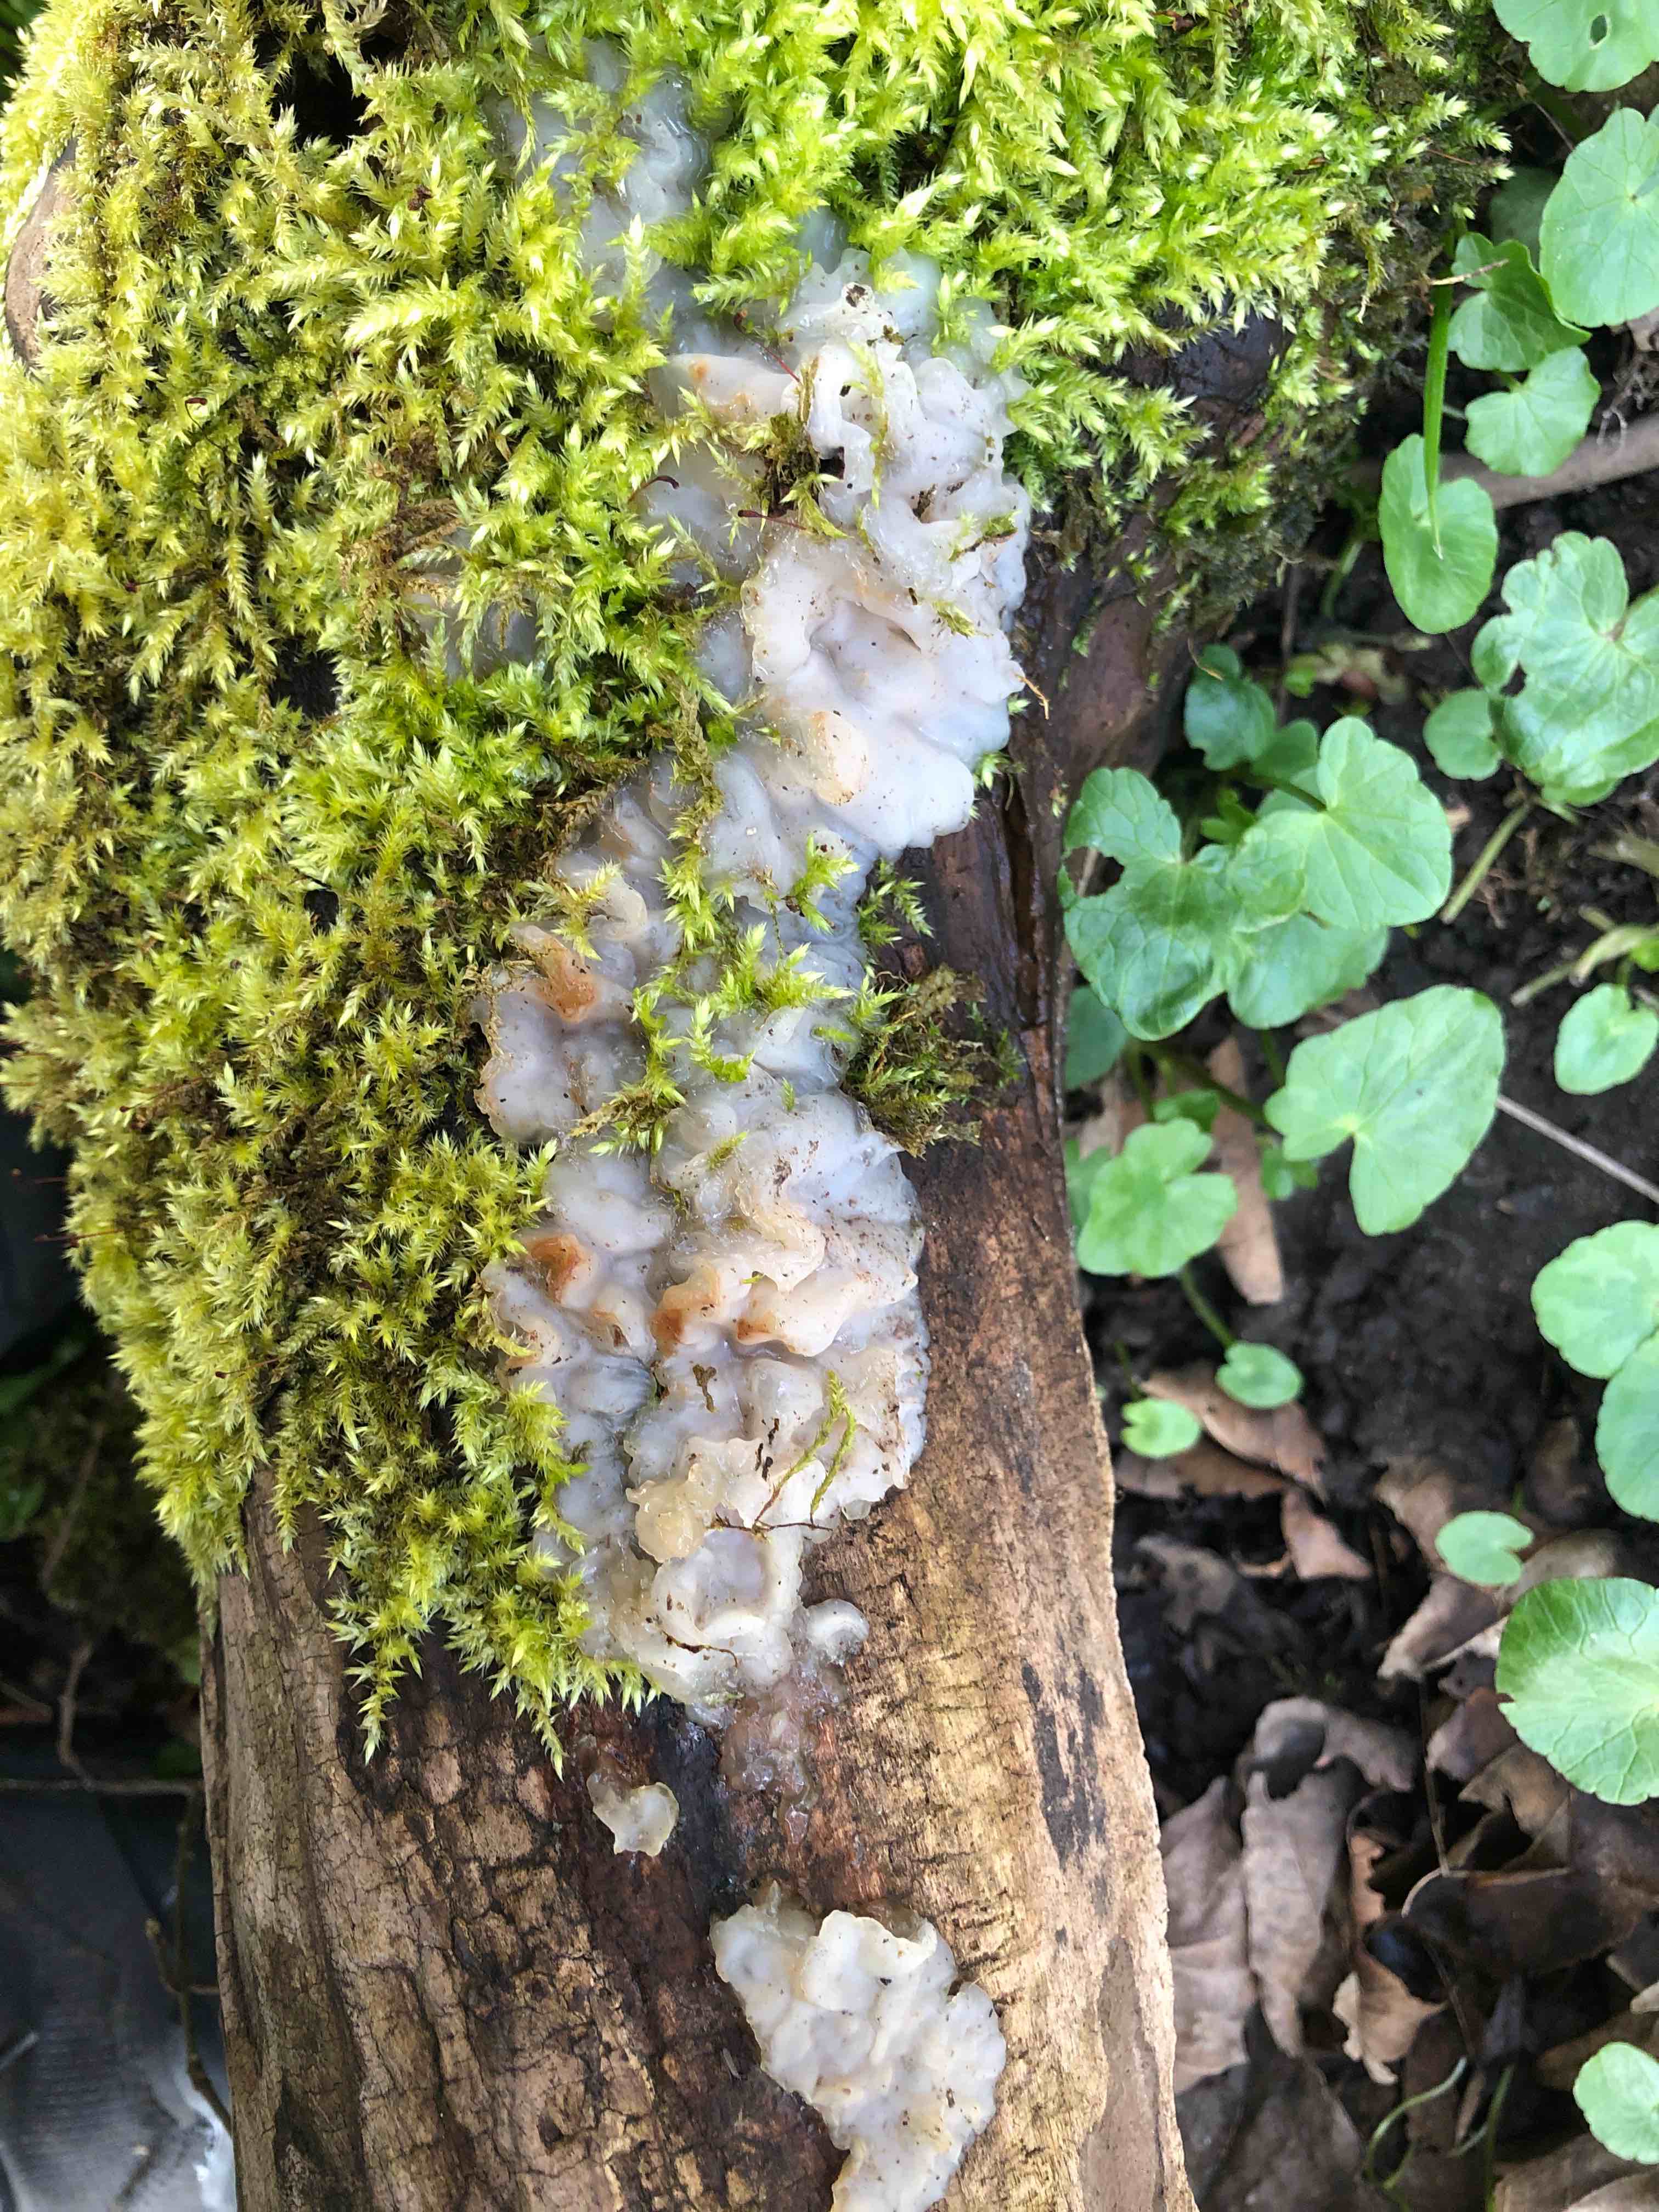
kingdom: Fungi
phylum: Basidiomycota
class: Agaricomycetes
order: Auriculariales
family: Auriculariaceae
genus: Exidia
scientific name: Exidia thuretiana
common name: hvidlig bævretop
